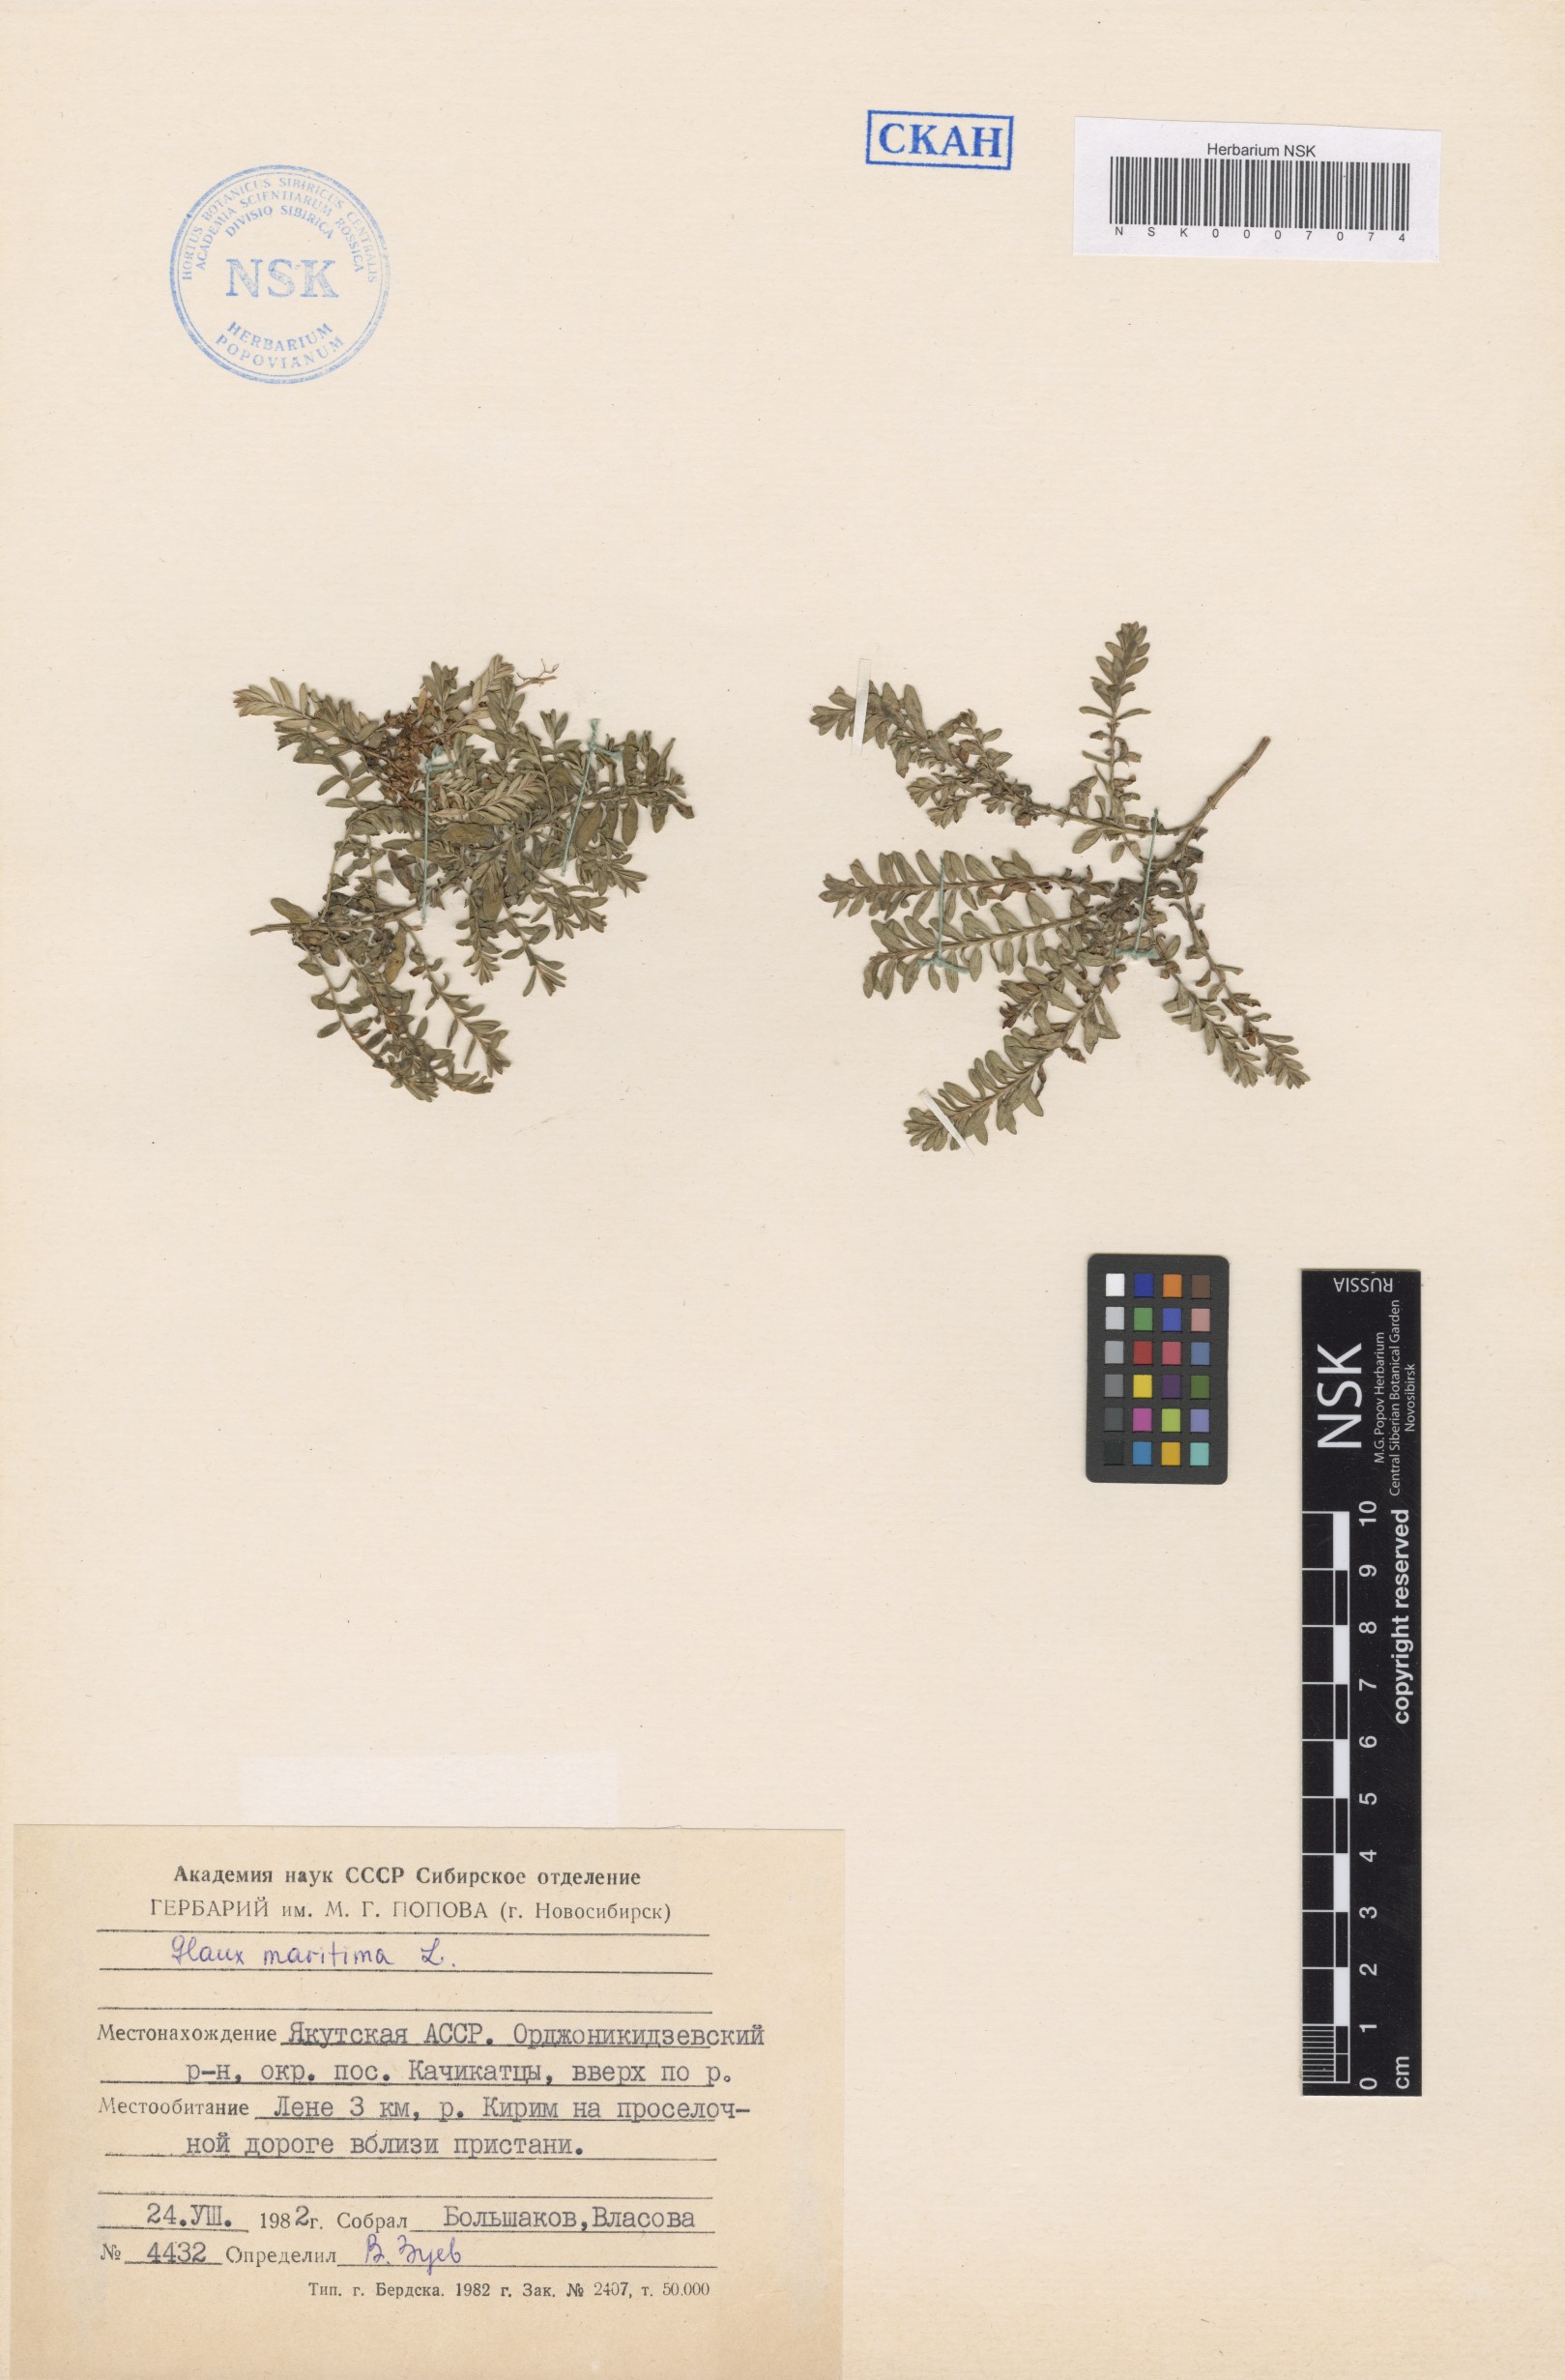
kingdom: Plantae
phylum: Tracheophyta
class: Magnoliopsida
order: Ericales
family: Primulaceae
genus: Lysimachia
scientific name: Lysimachia maritima
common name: Sea milkwort
